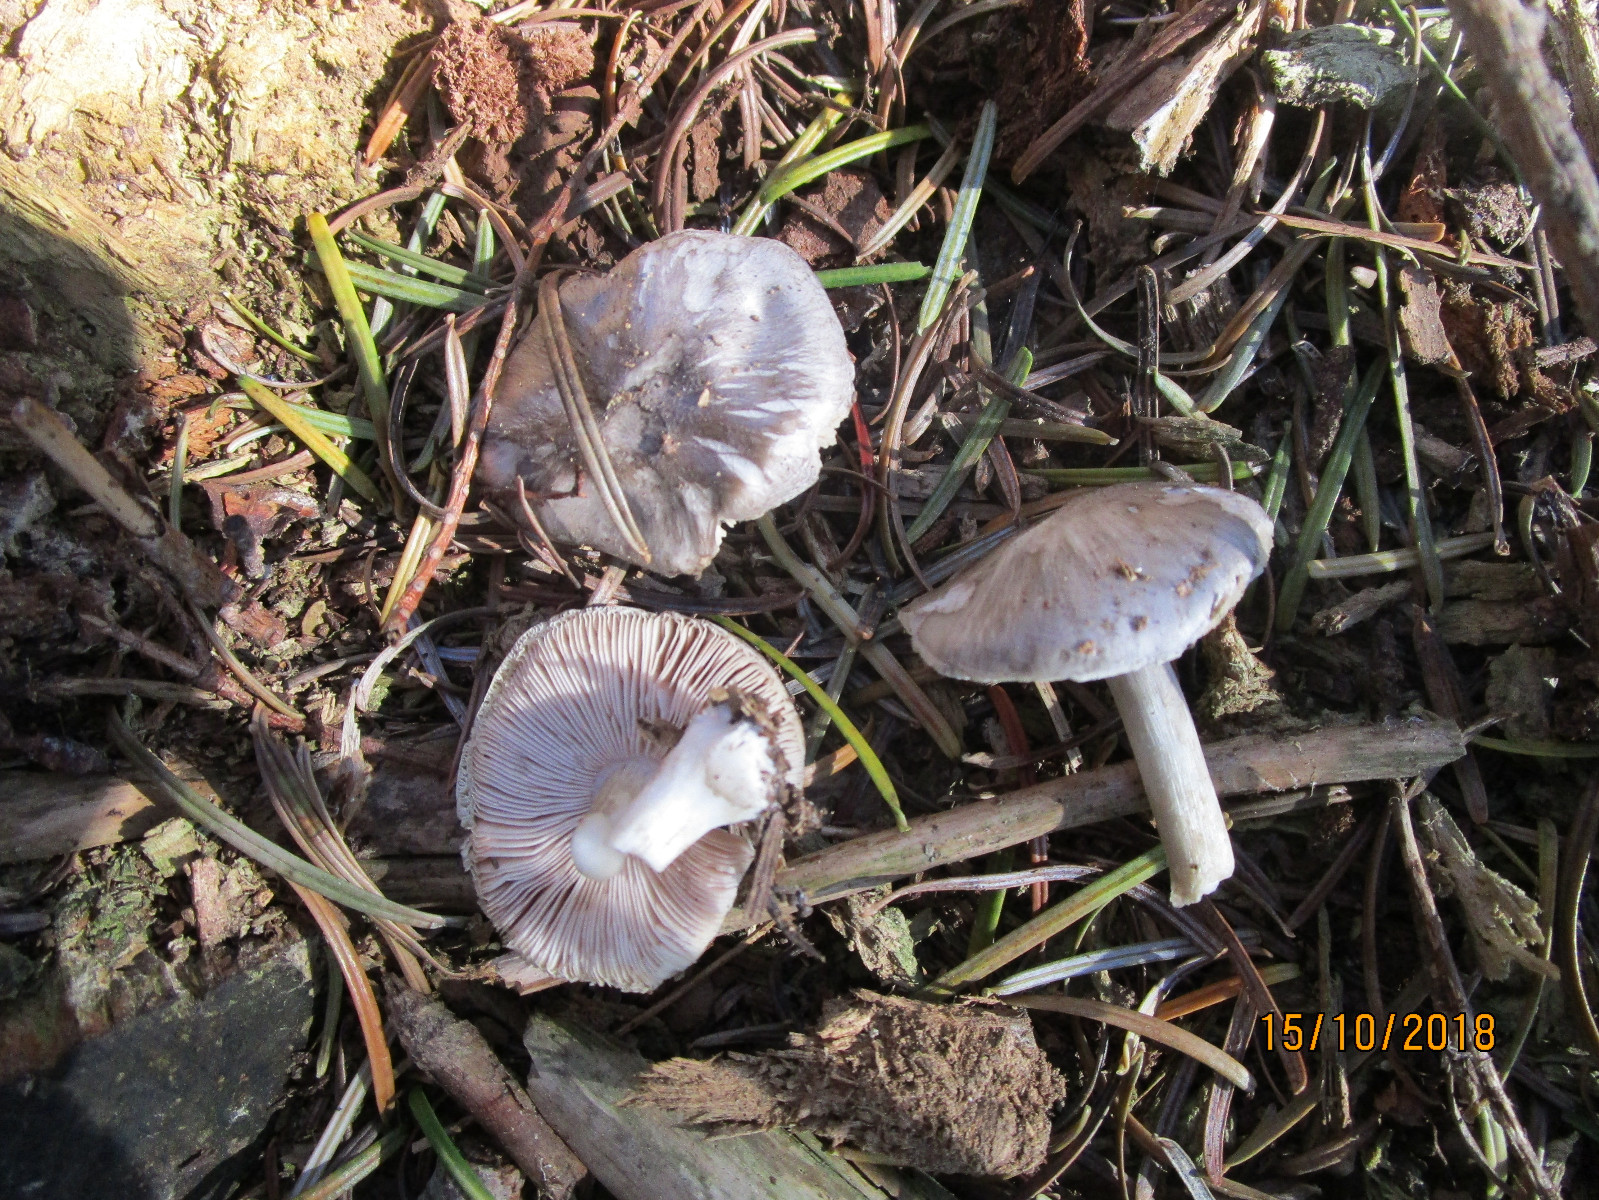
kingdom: Fungi
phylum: Basidiomycota
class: Agaricomycetes
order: Agaricales
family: Pluteaceae
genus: Pluteus
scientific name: Pluteus
